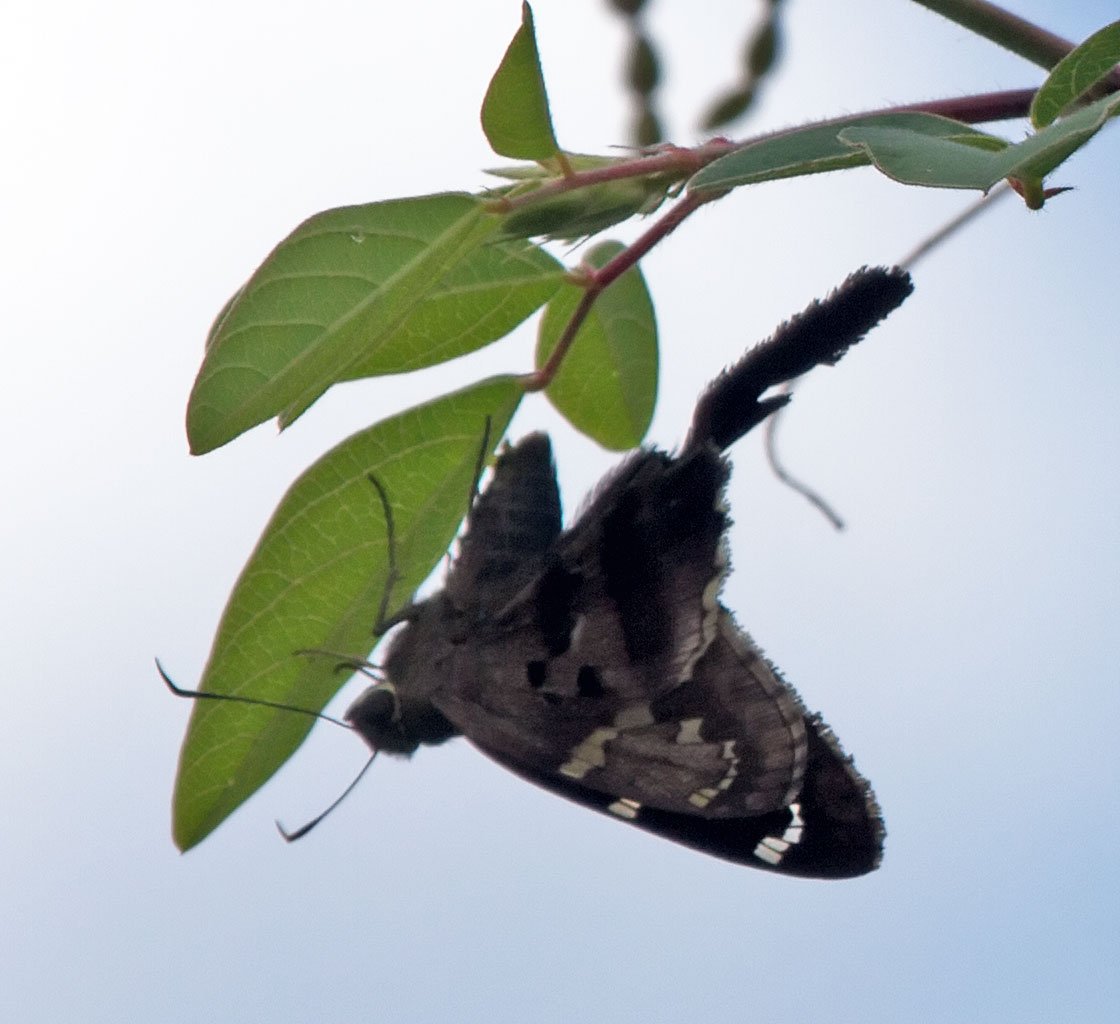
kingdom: Animalia
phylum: Arthropoda
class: Insecta
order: Lepidoptera
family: Hesperiidae
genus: Urbanus
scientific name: Urbanus proteus
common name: Long-tailed Skipper
